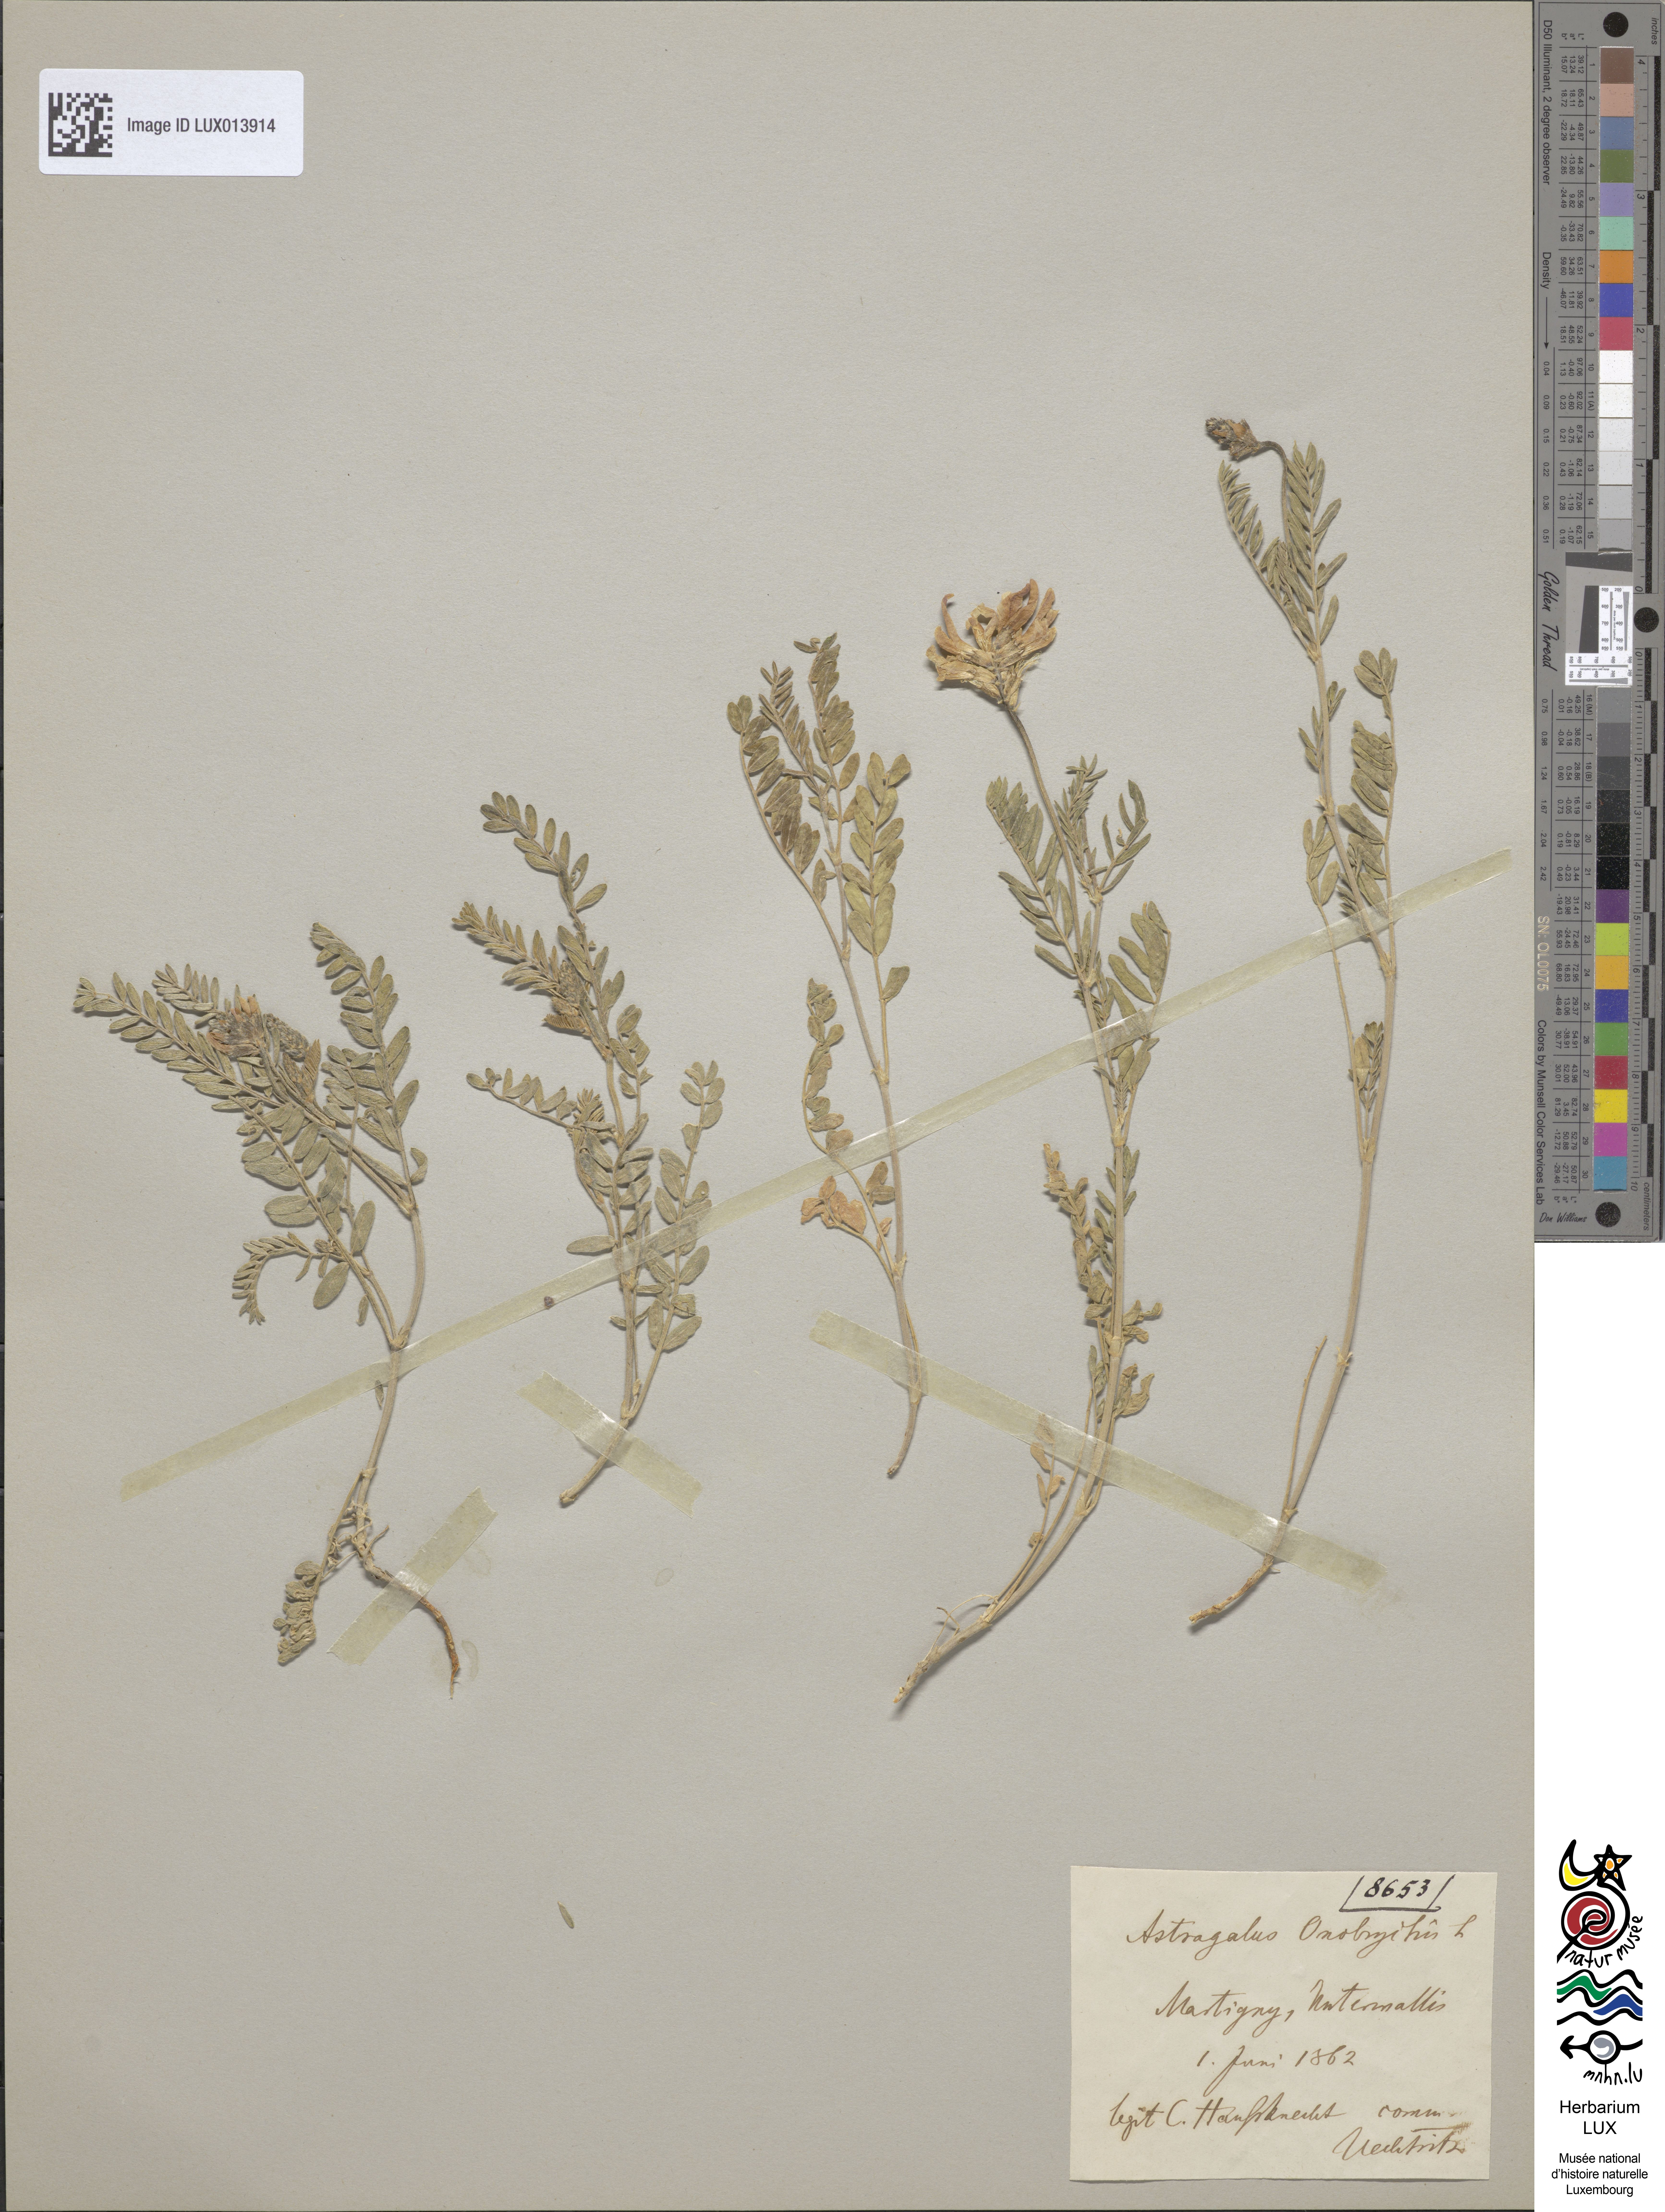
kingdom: Plantae
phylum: Tracheophyta
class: Magnoliopsida
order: Fabales
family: Fabaceae
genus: Astragalus
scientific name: Astragalus onobrychis
